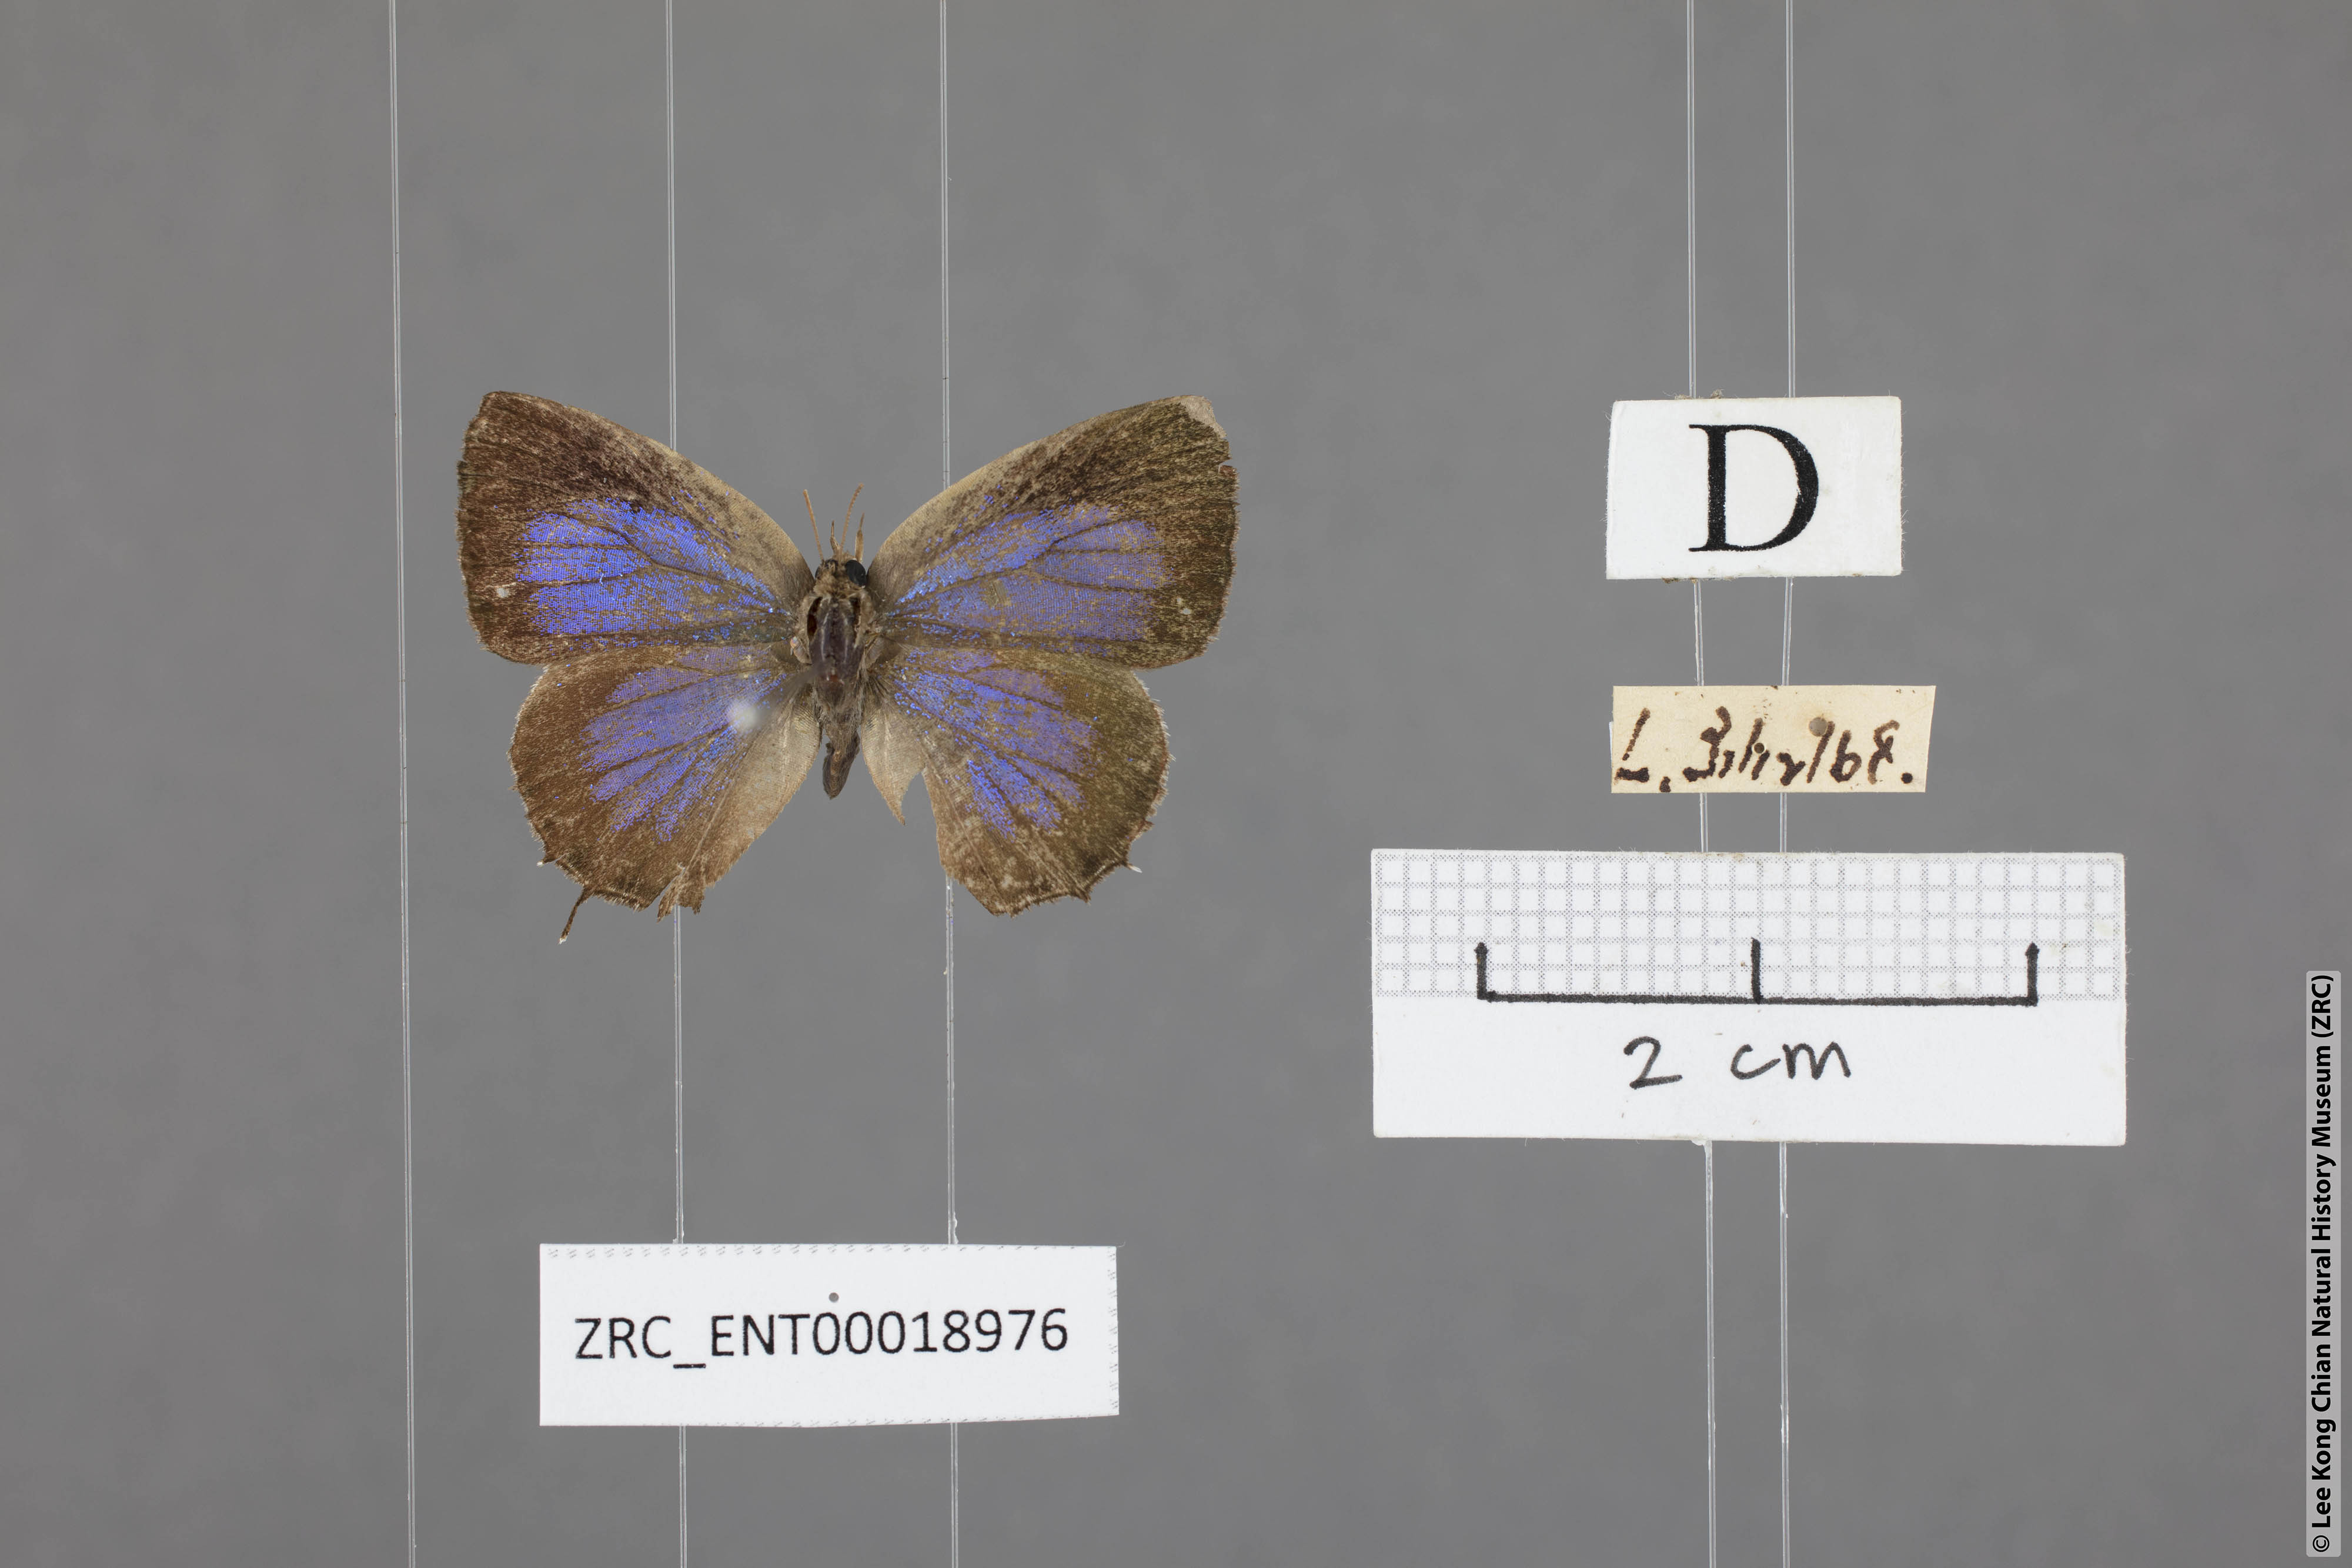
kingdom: Animalia
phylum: Arthropoda
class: Insecta
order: Lepidoptera
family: Lycaenidae
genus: Arhopala
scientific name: Arhopala abseus
